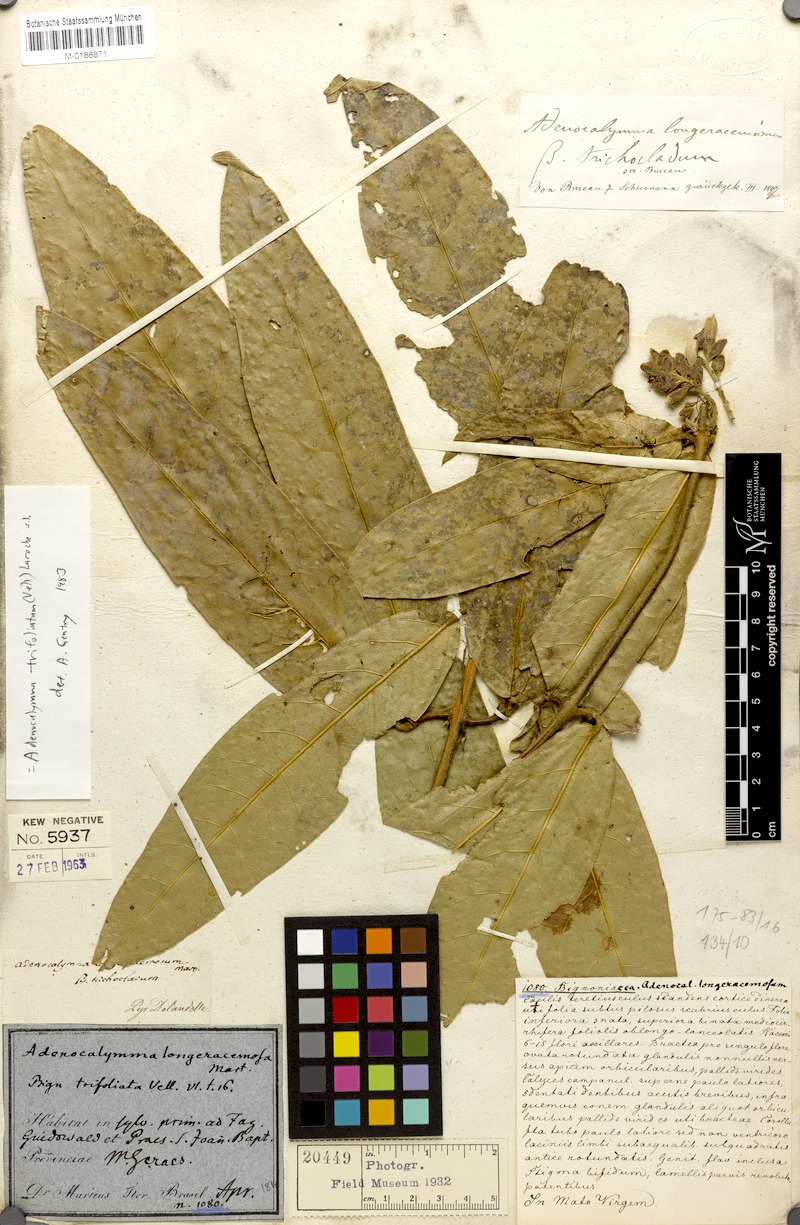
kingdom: Plantae
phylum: Tracheophyta
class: Magnoliopsida
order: Lamiales
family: Bignoniaceae
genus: Adenocalymma
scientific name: Adenocalymma trifoliatum
